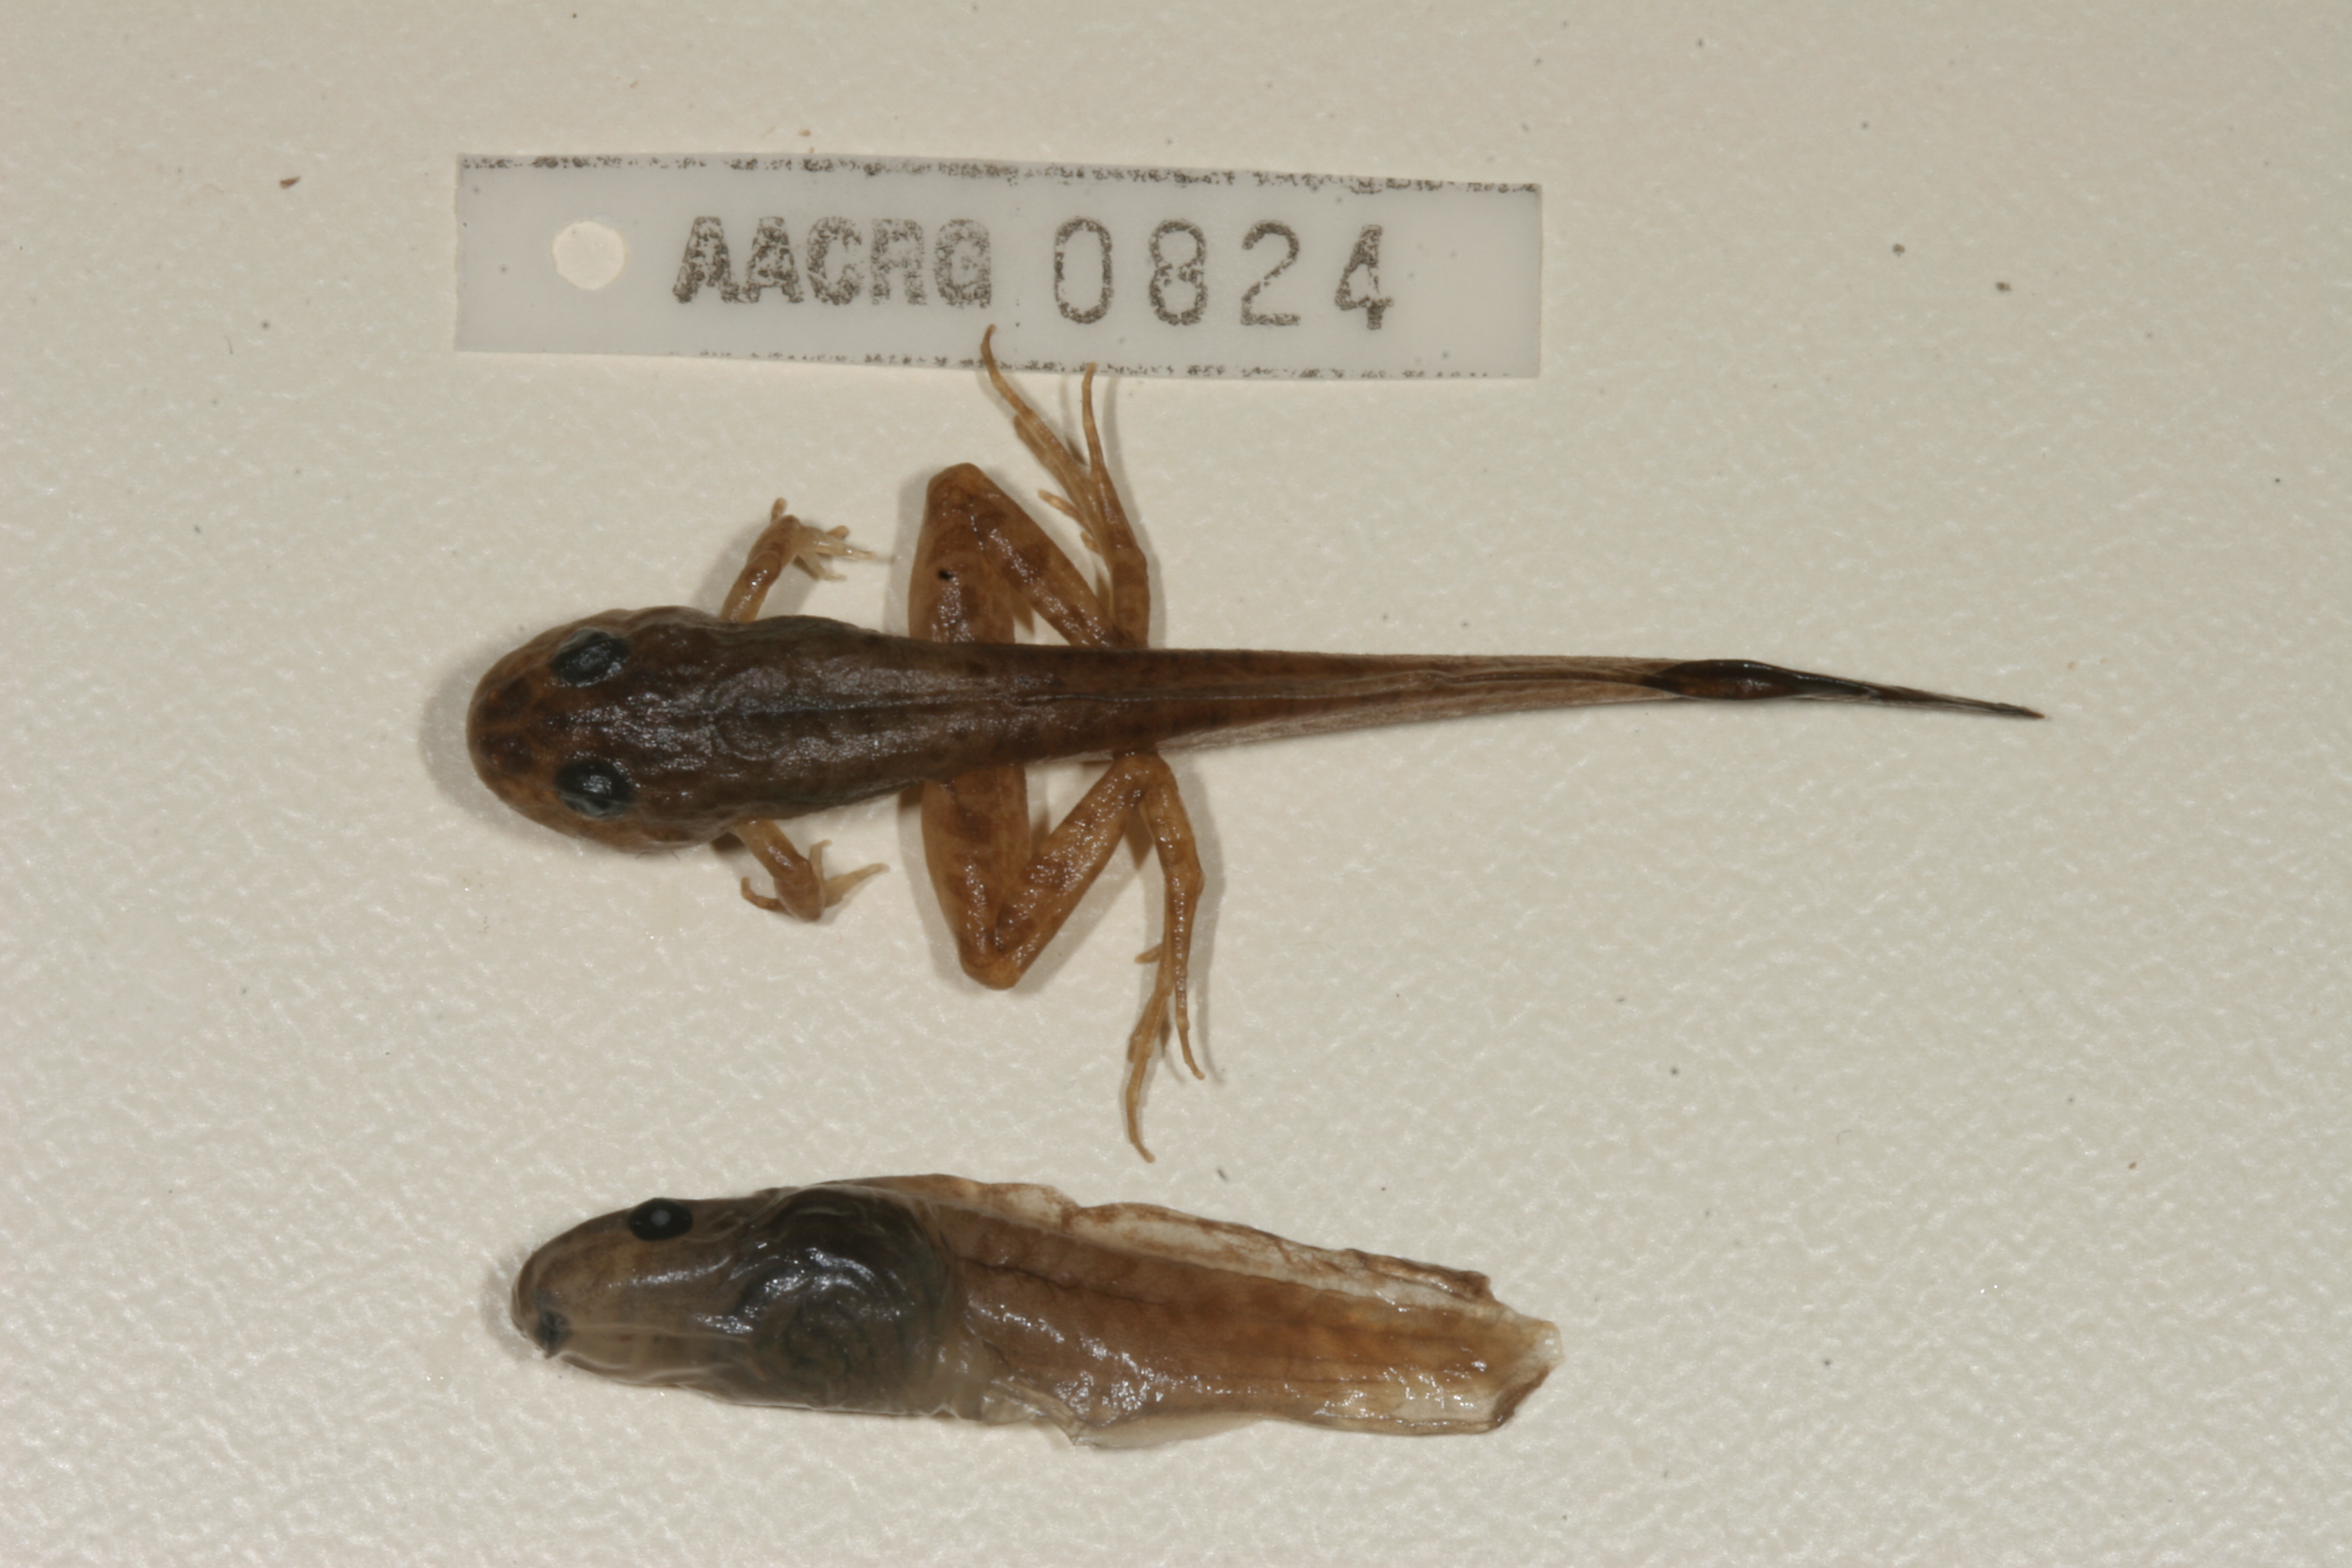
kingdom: Animalia
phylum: Chordata
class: Amphibia
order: Anura
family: Pyxicephalidae
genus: Strongylopus
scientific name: Strongylopus fasciatus
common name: Striped stream frog
